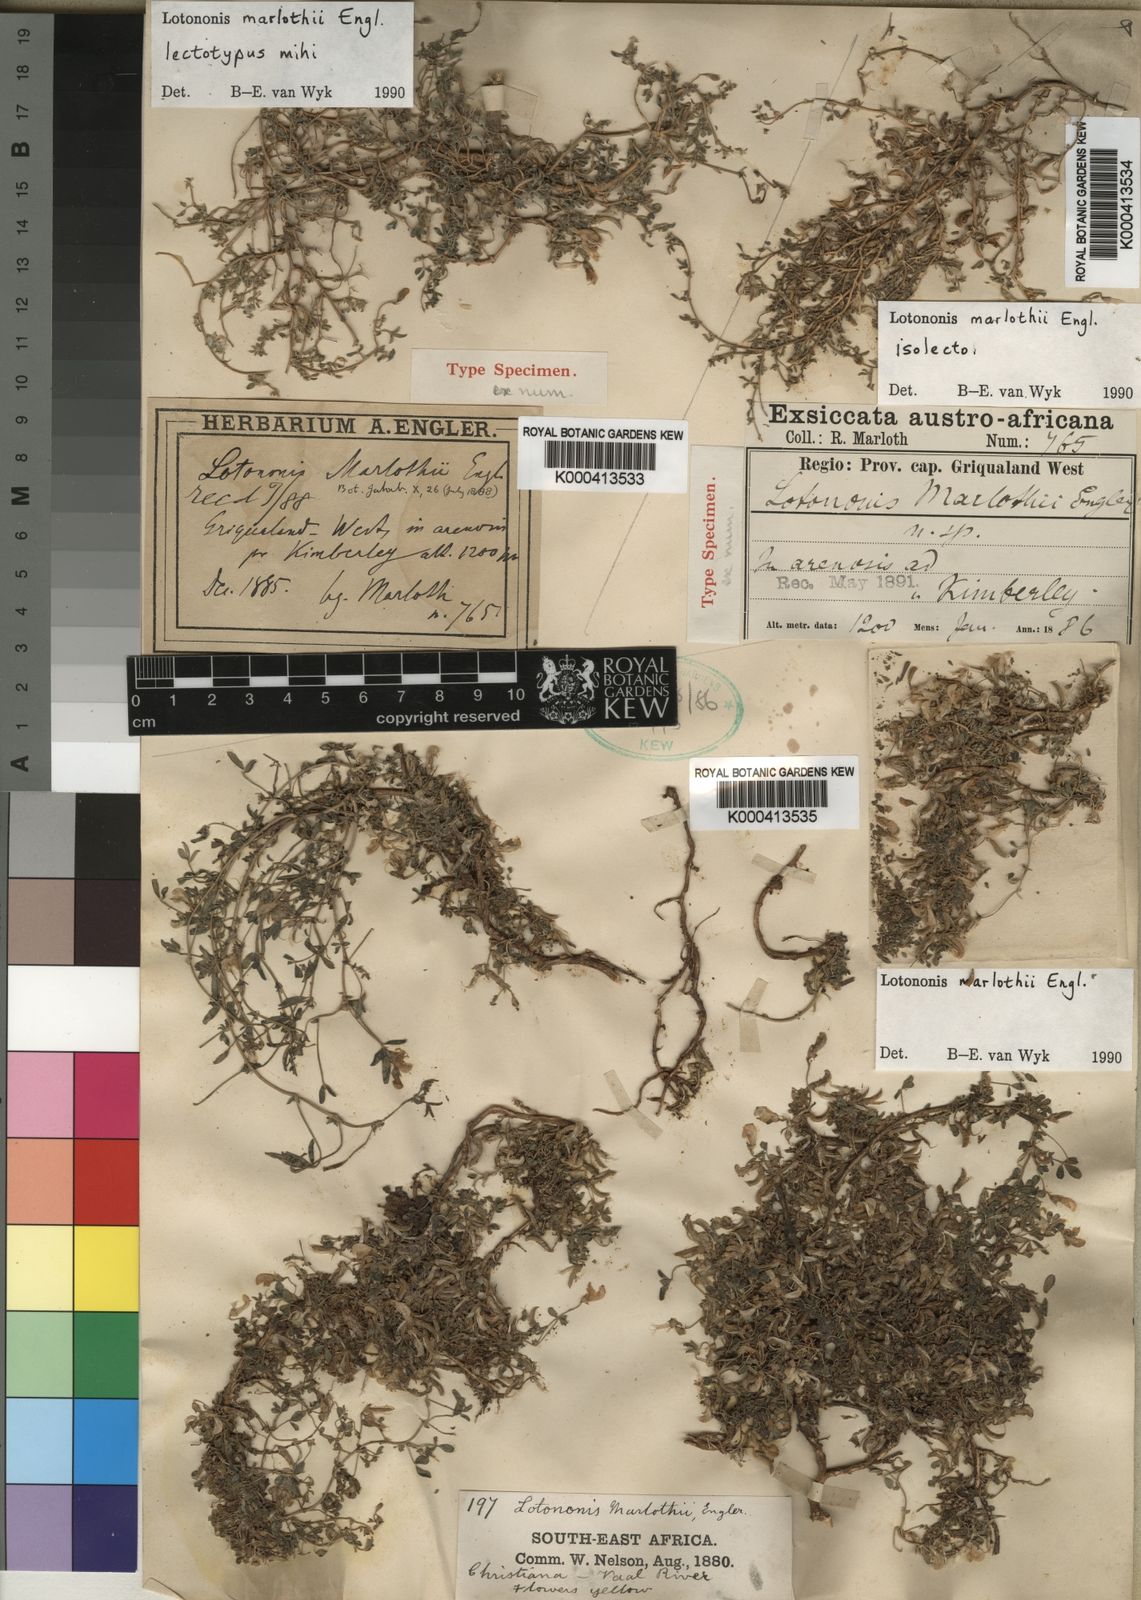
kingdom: Plantae
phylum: Tracheophyta
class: Magnoliopsida
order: Fabales
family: Fabaceae
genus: Listia
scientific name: Listia marlothii
